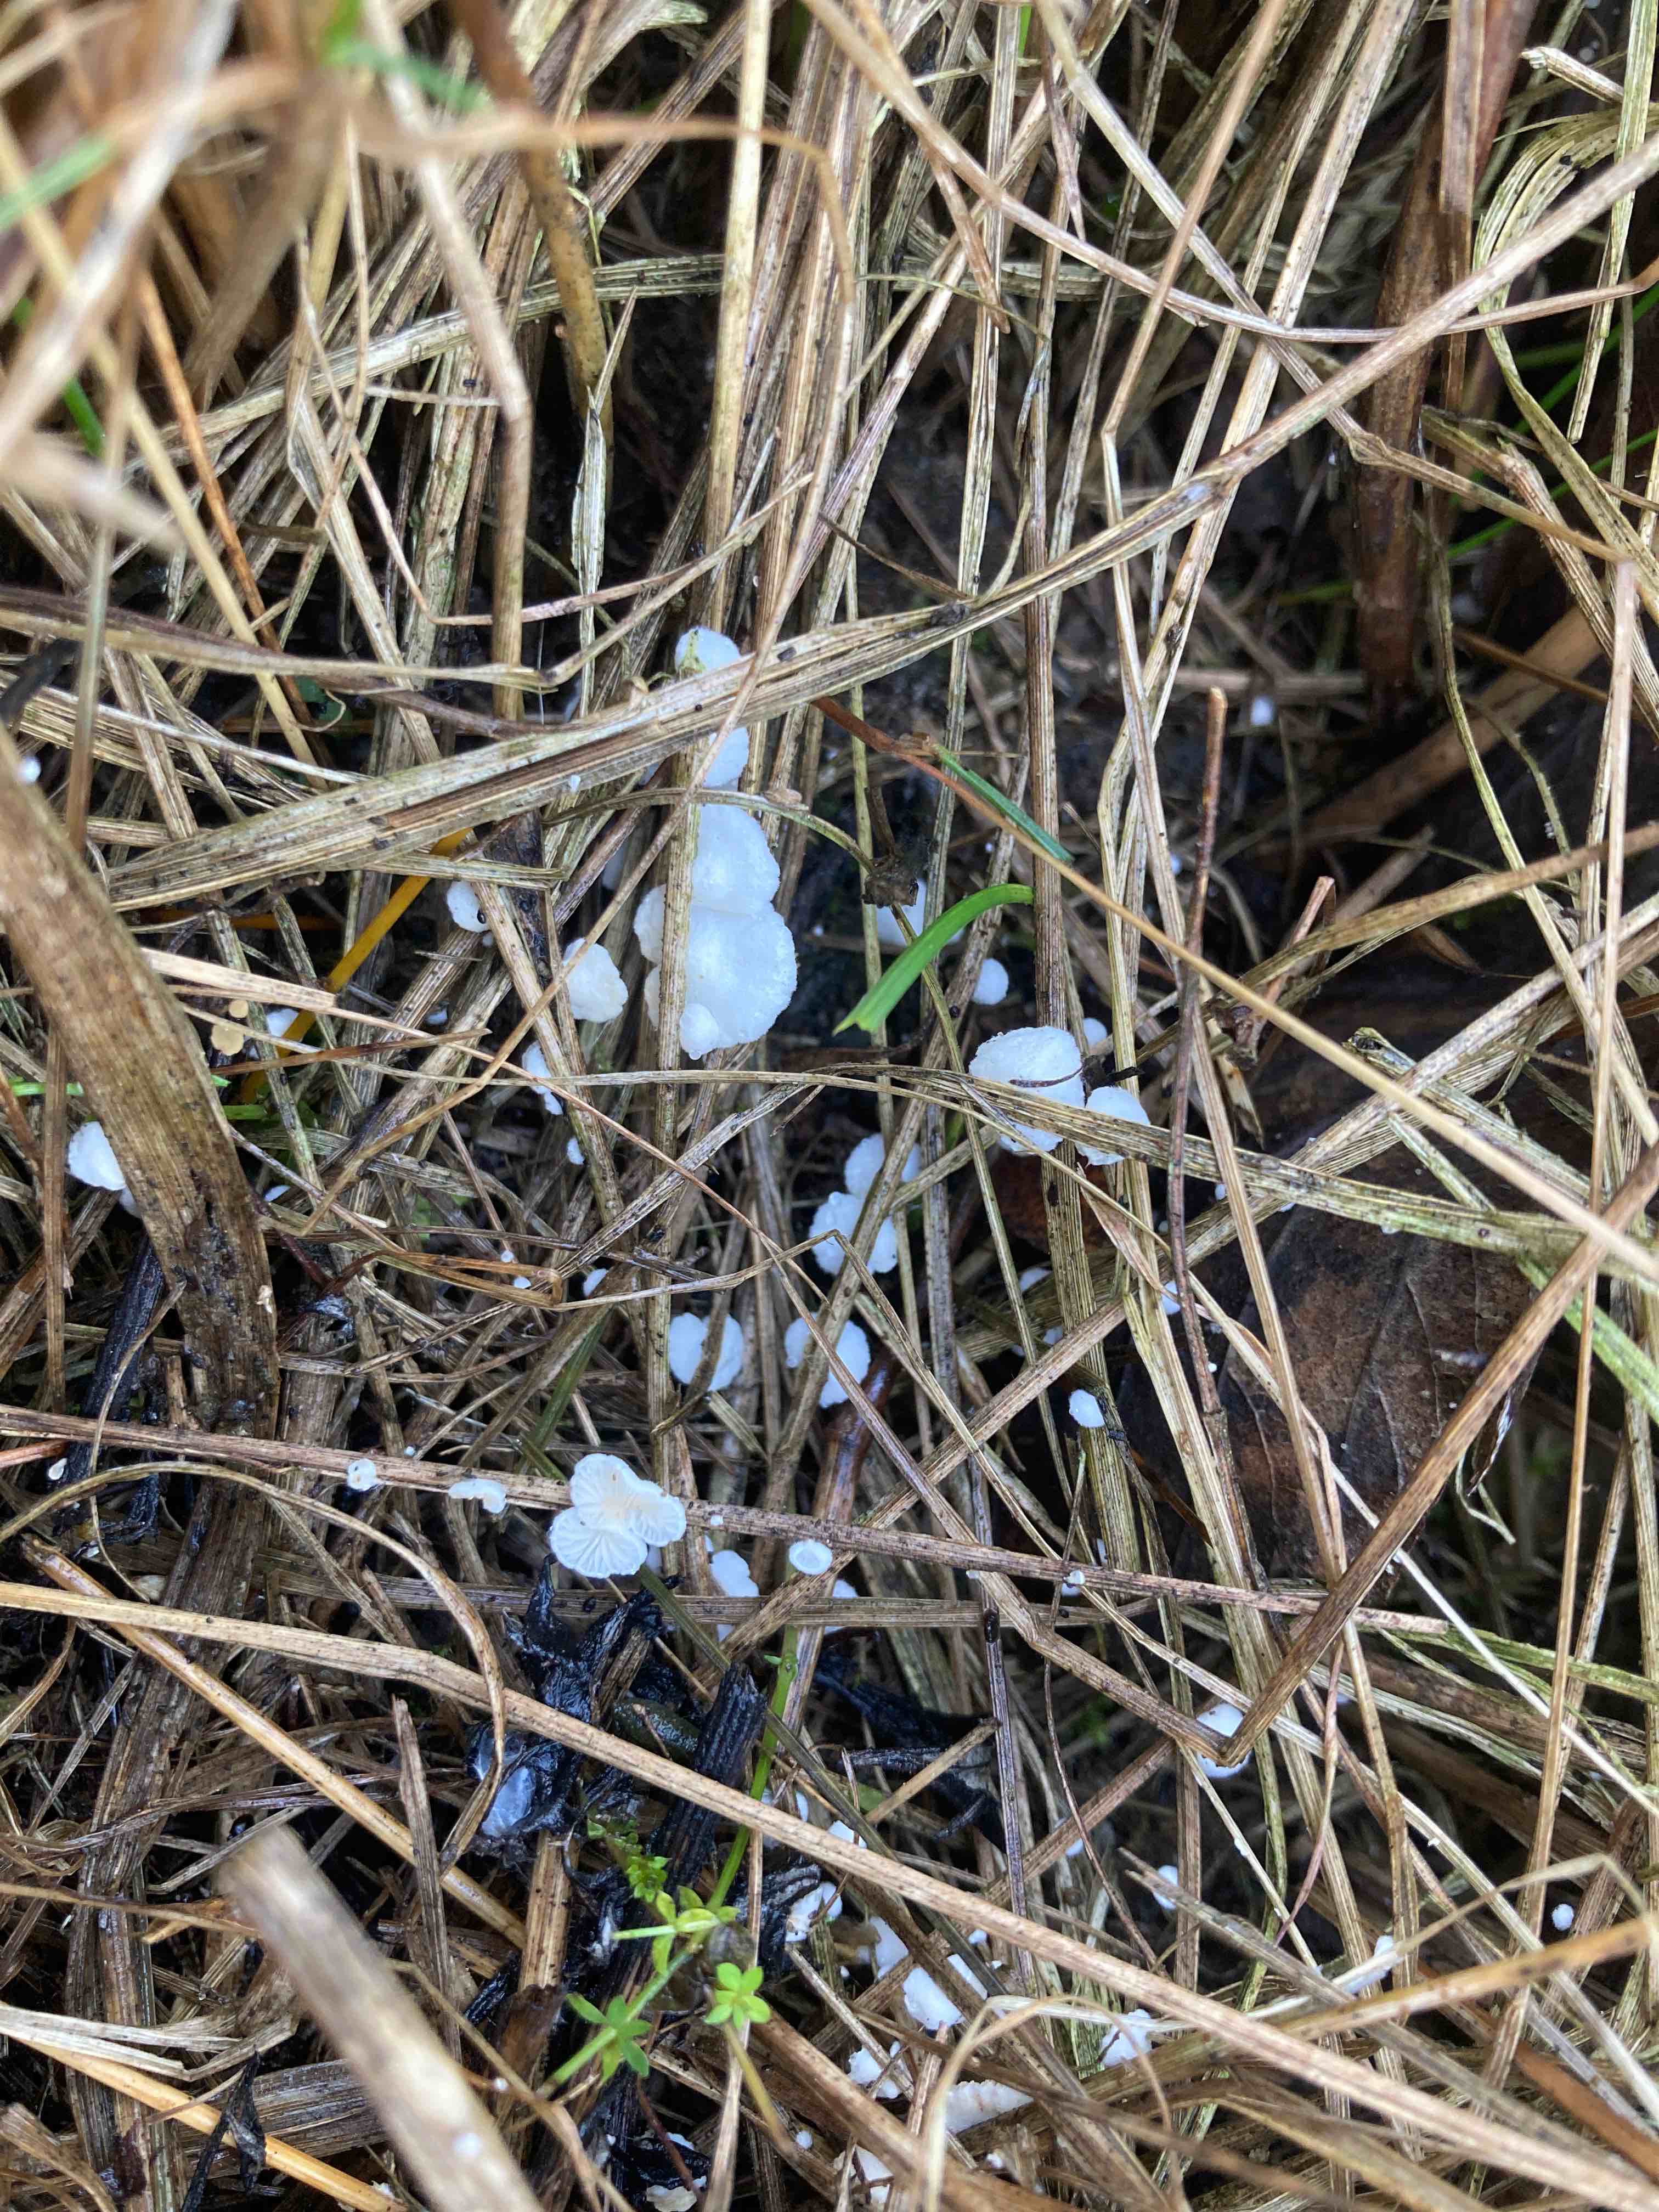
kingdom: Fungi
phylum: Basidiomycota
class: Agaricomycetes
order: Agaricales
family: Crepidotaceae
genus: Crepidotus
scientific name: Crepidotus epibryus
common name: førne-muslingesvamp
